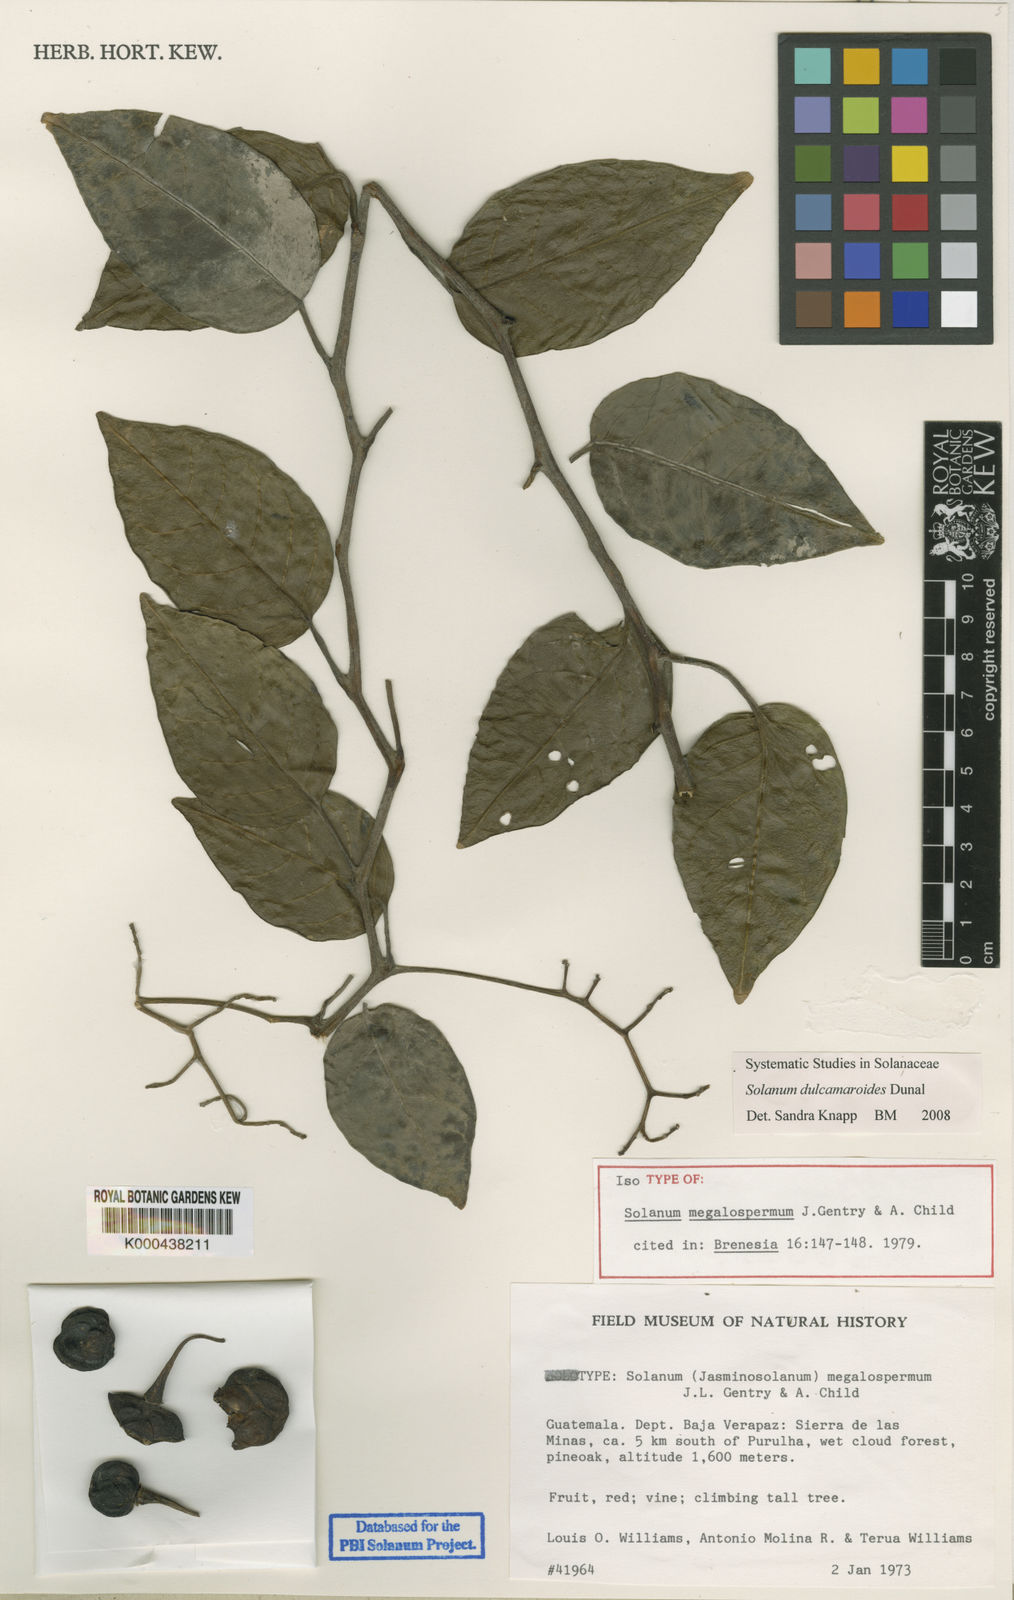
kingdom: Plantae
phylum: Tracheophyta
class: Magnoliopsida
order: Solanales
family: Solanaceae
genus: Solanum
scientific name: Solanum dulcamaroides
